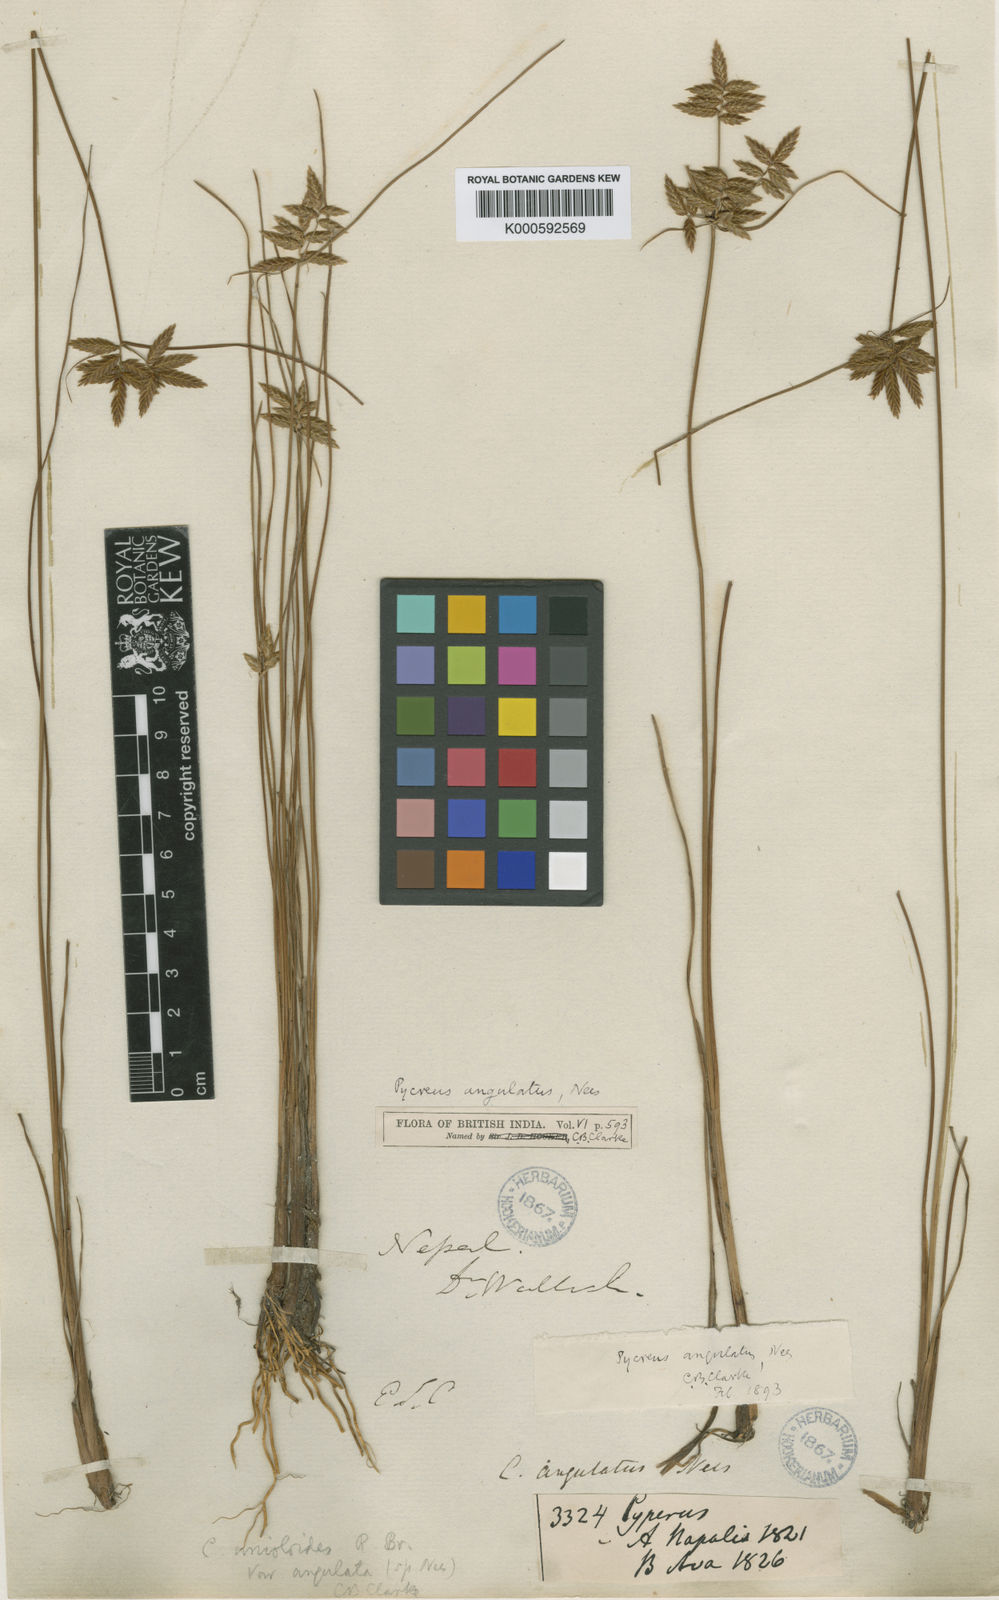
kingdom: Plantae
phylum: Tracheophyta
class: Liliopsida
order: Poales
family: Cyperaceae
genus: Cyperus
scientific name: Cyperus unioloides
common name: Uniola flatsedge
